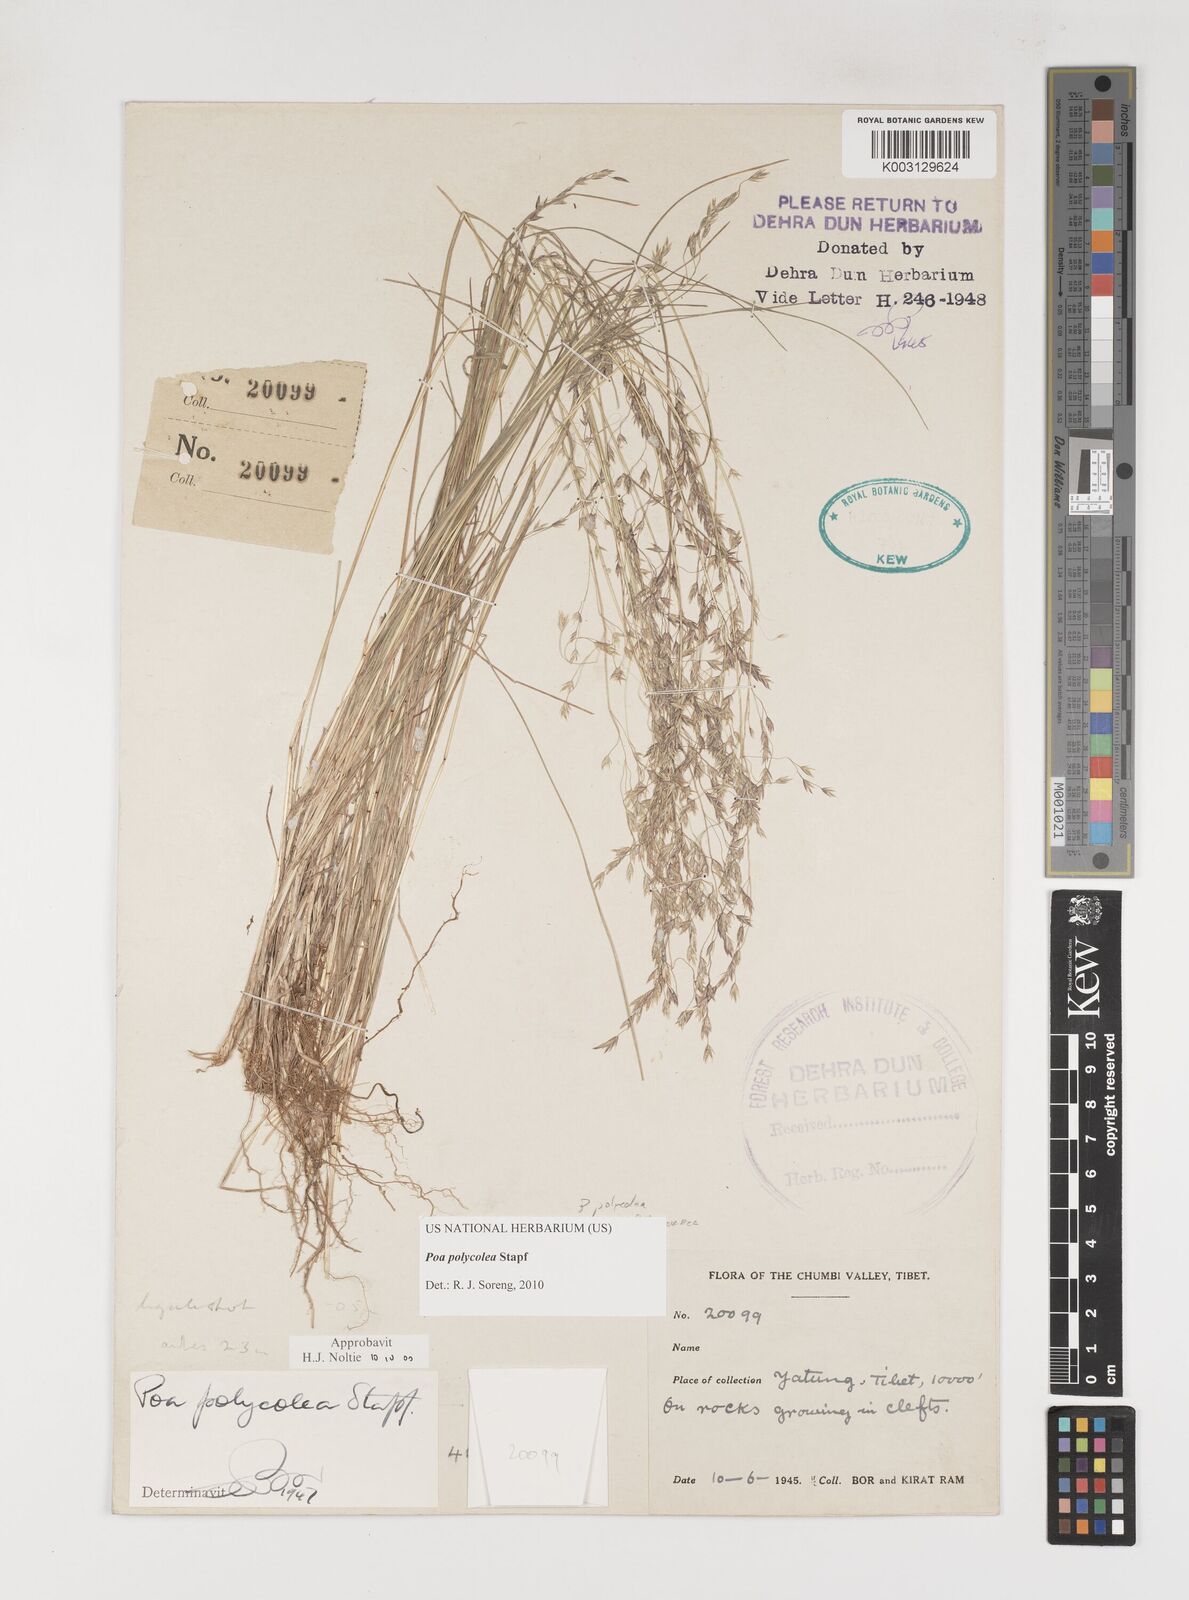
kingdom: Plantae
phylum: Tracheophyta
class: Liliopsida
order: Poales
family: Poaceae
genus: Poa
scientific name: Poa polycolea
